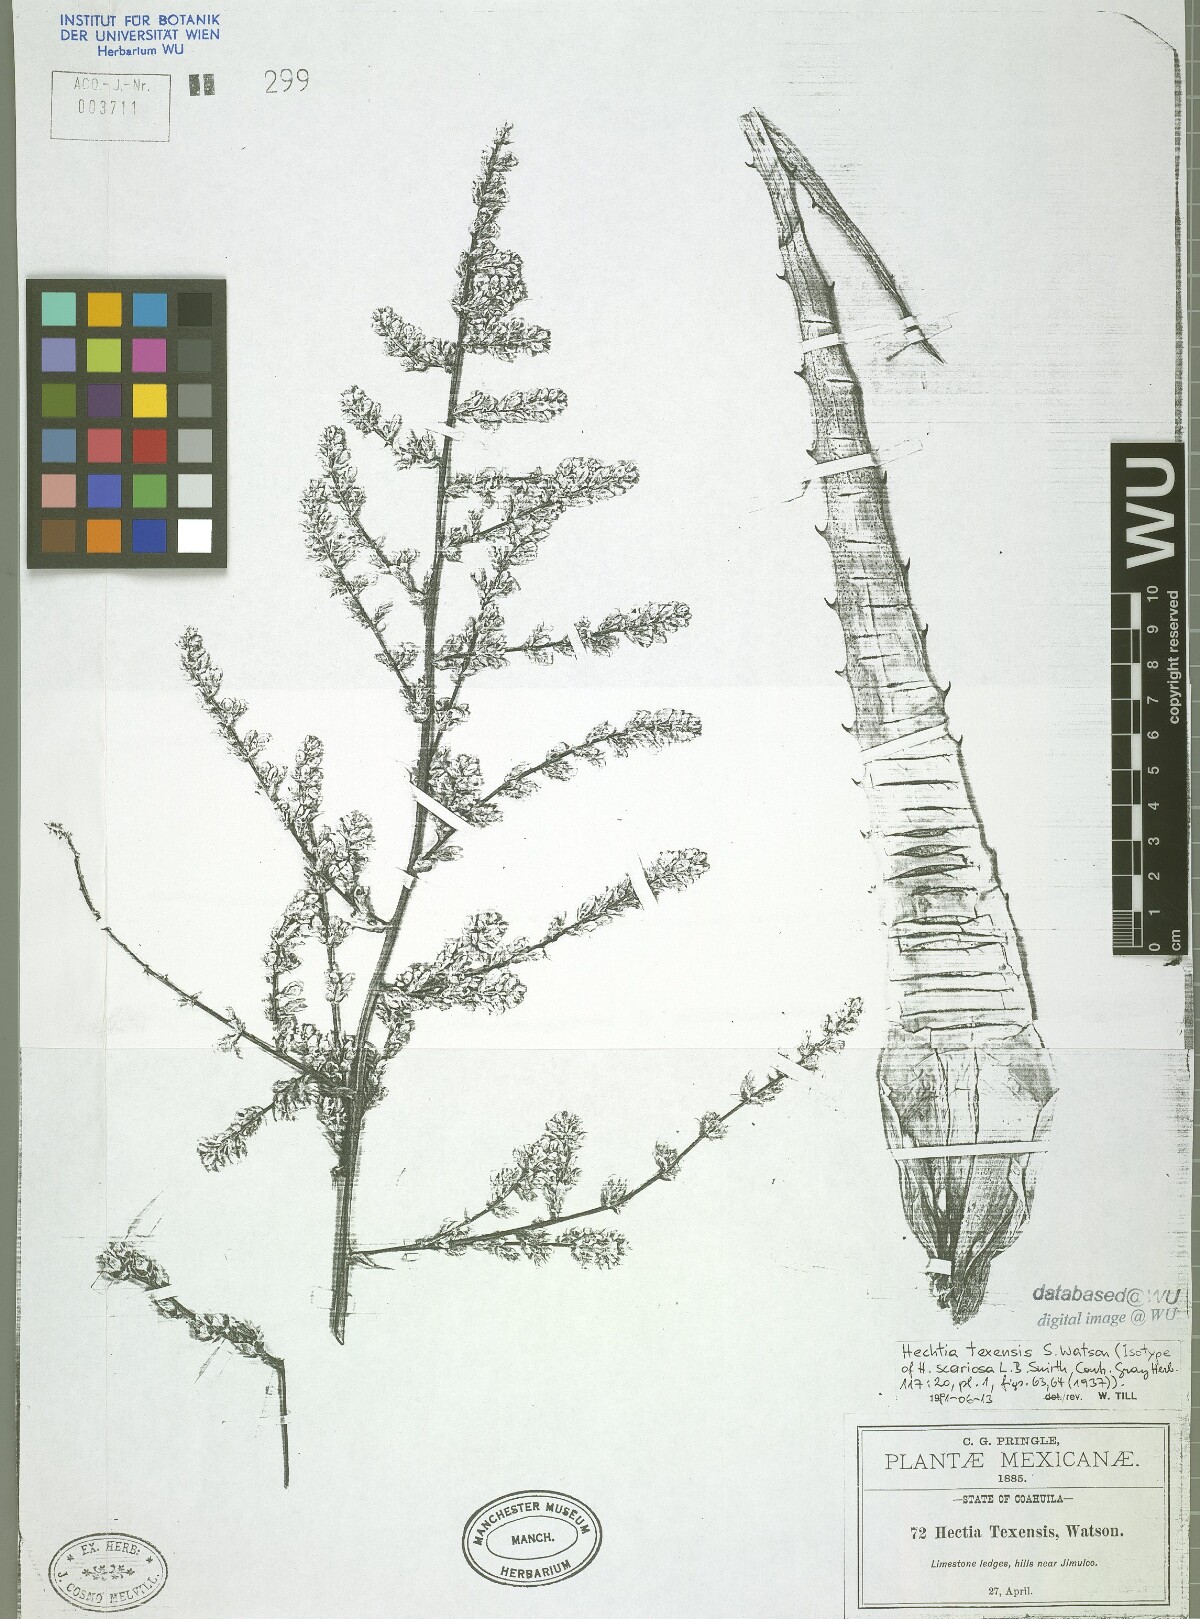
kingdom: Plantae
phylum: Tracheophyta
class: Liliopsida
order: Poales
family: Bromeliaceae
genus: Hechtia
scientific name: Hechtia texensis
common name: False agave
